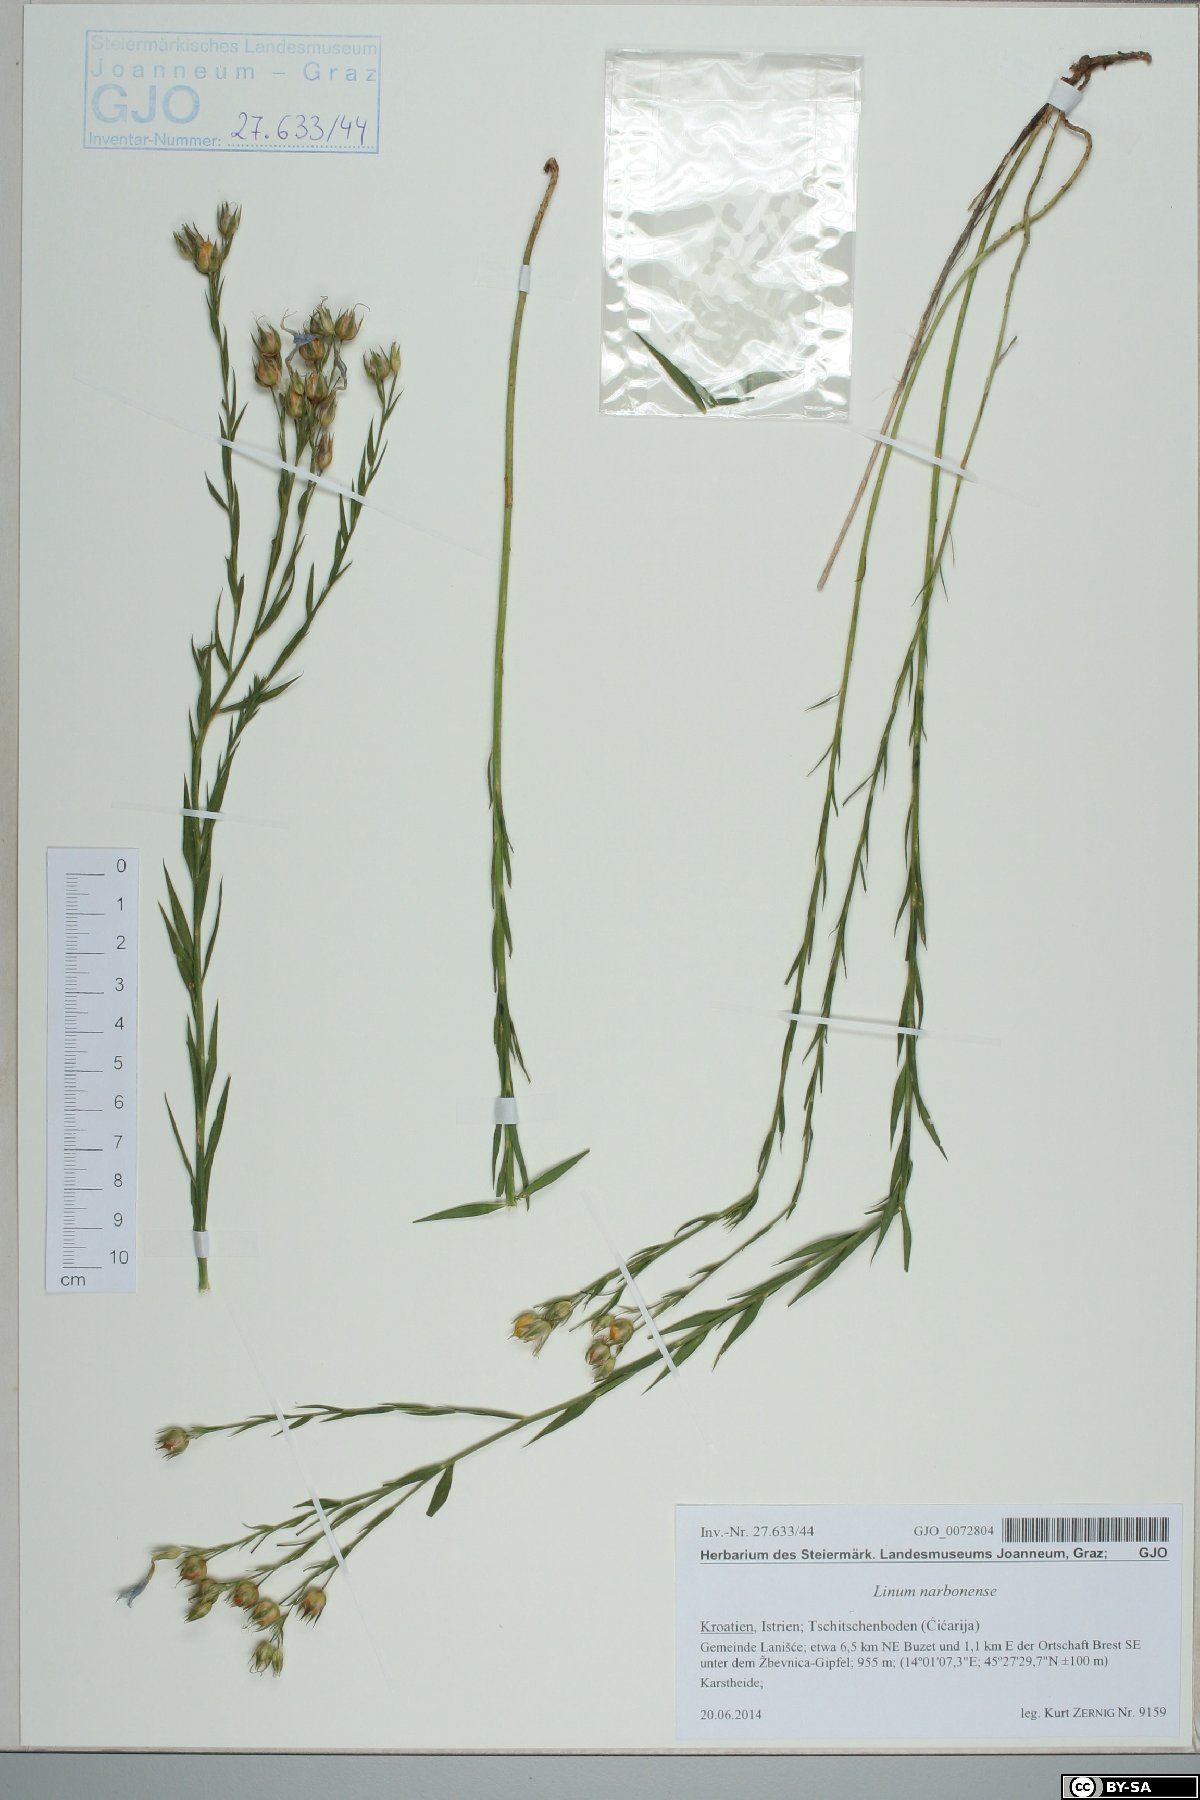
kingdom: Plantae
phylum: Tracheophyta
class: Magnoliopsida
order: Malpighiales
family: Linaceae
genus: Linum
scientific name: Linum narbonense
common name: Flax
